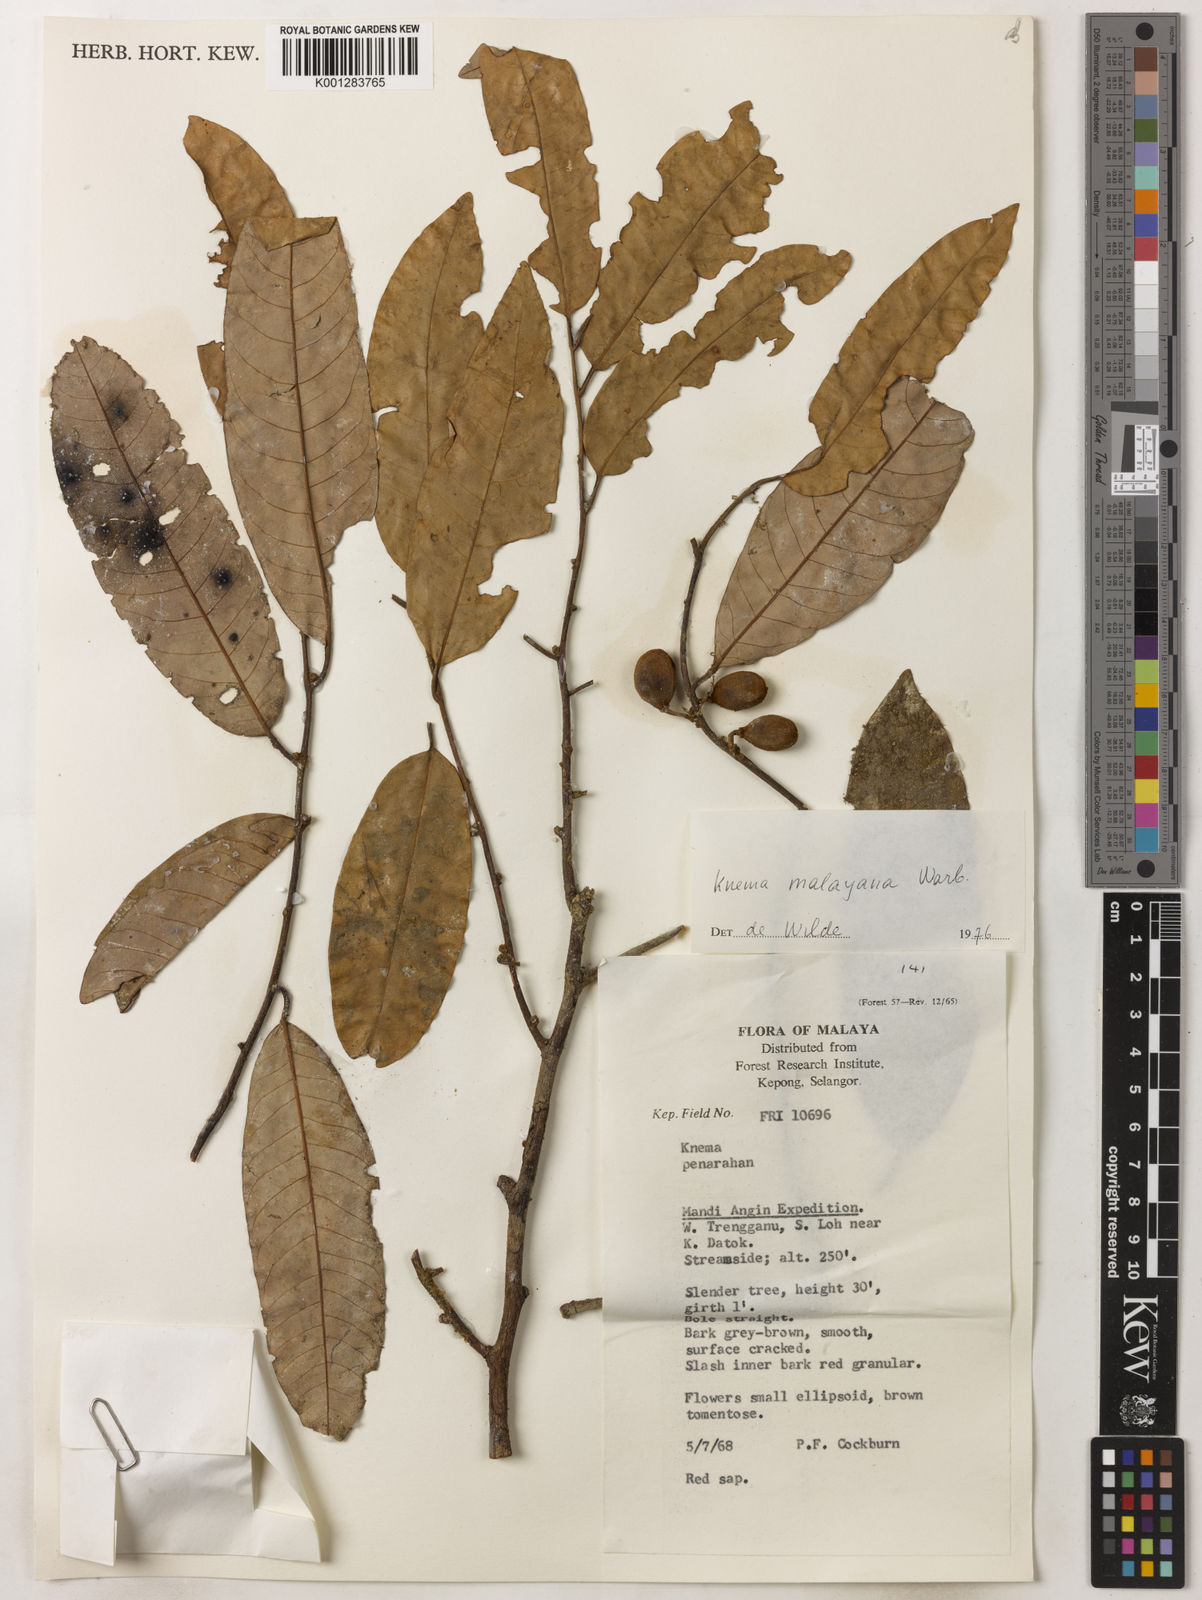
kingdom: Plantae
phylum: Tracheophyta
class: Magnoliopsida
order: Magnoliales
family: Myristicaceae
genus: Knema
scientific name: Knema malayana
